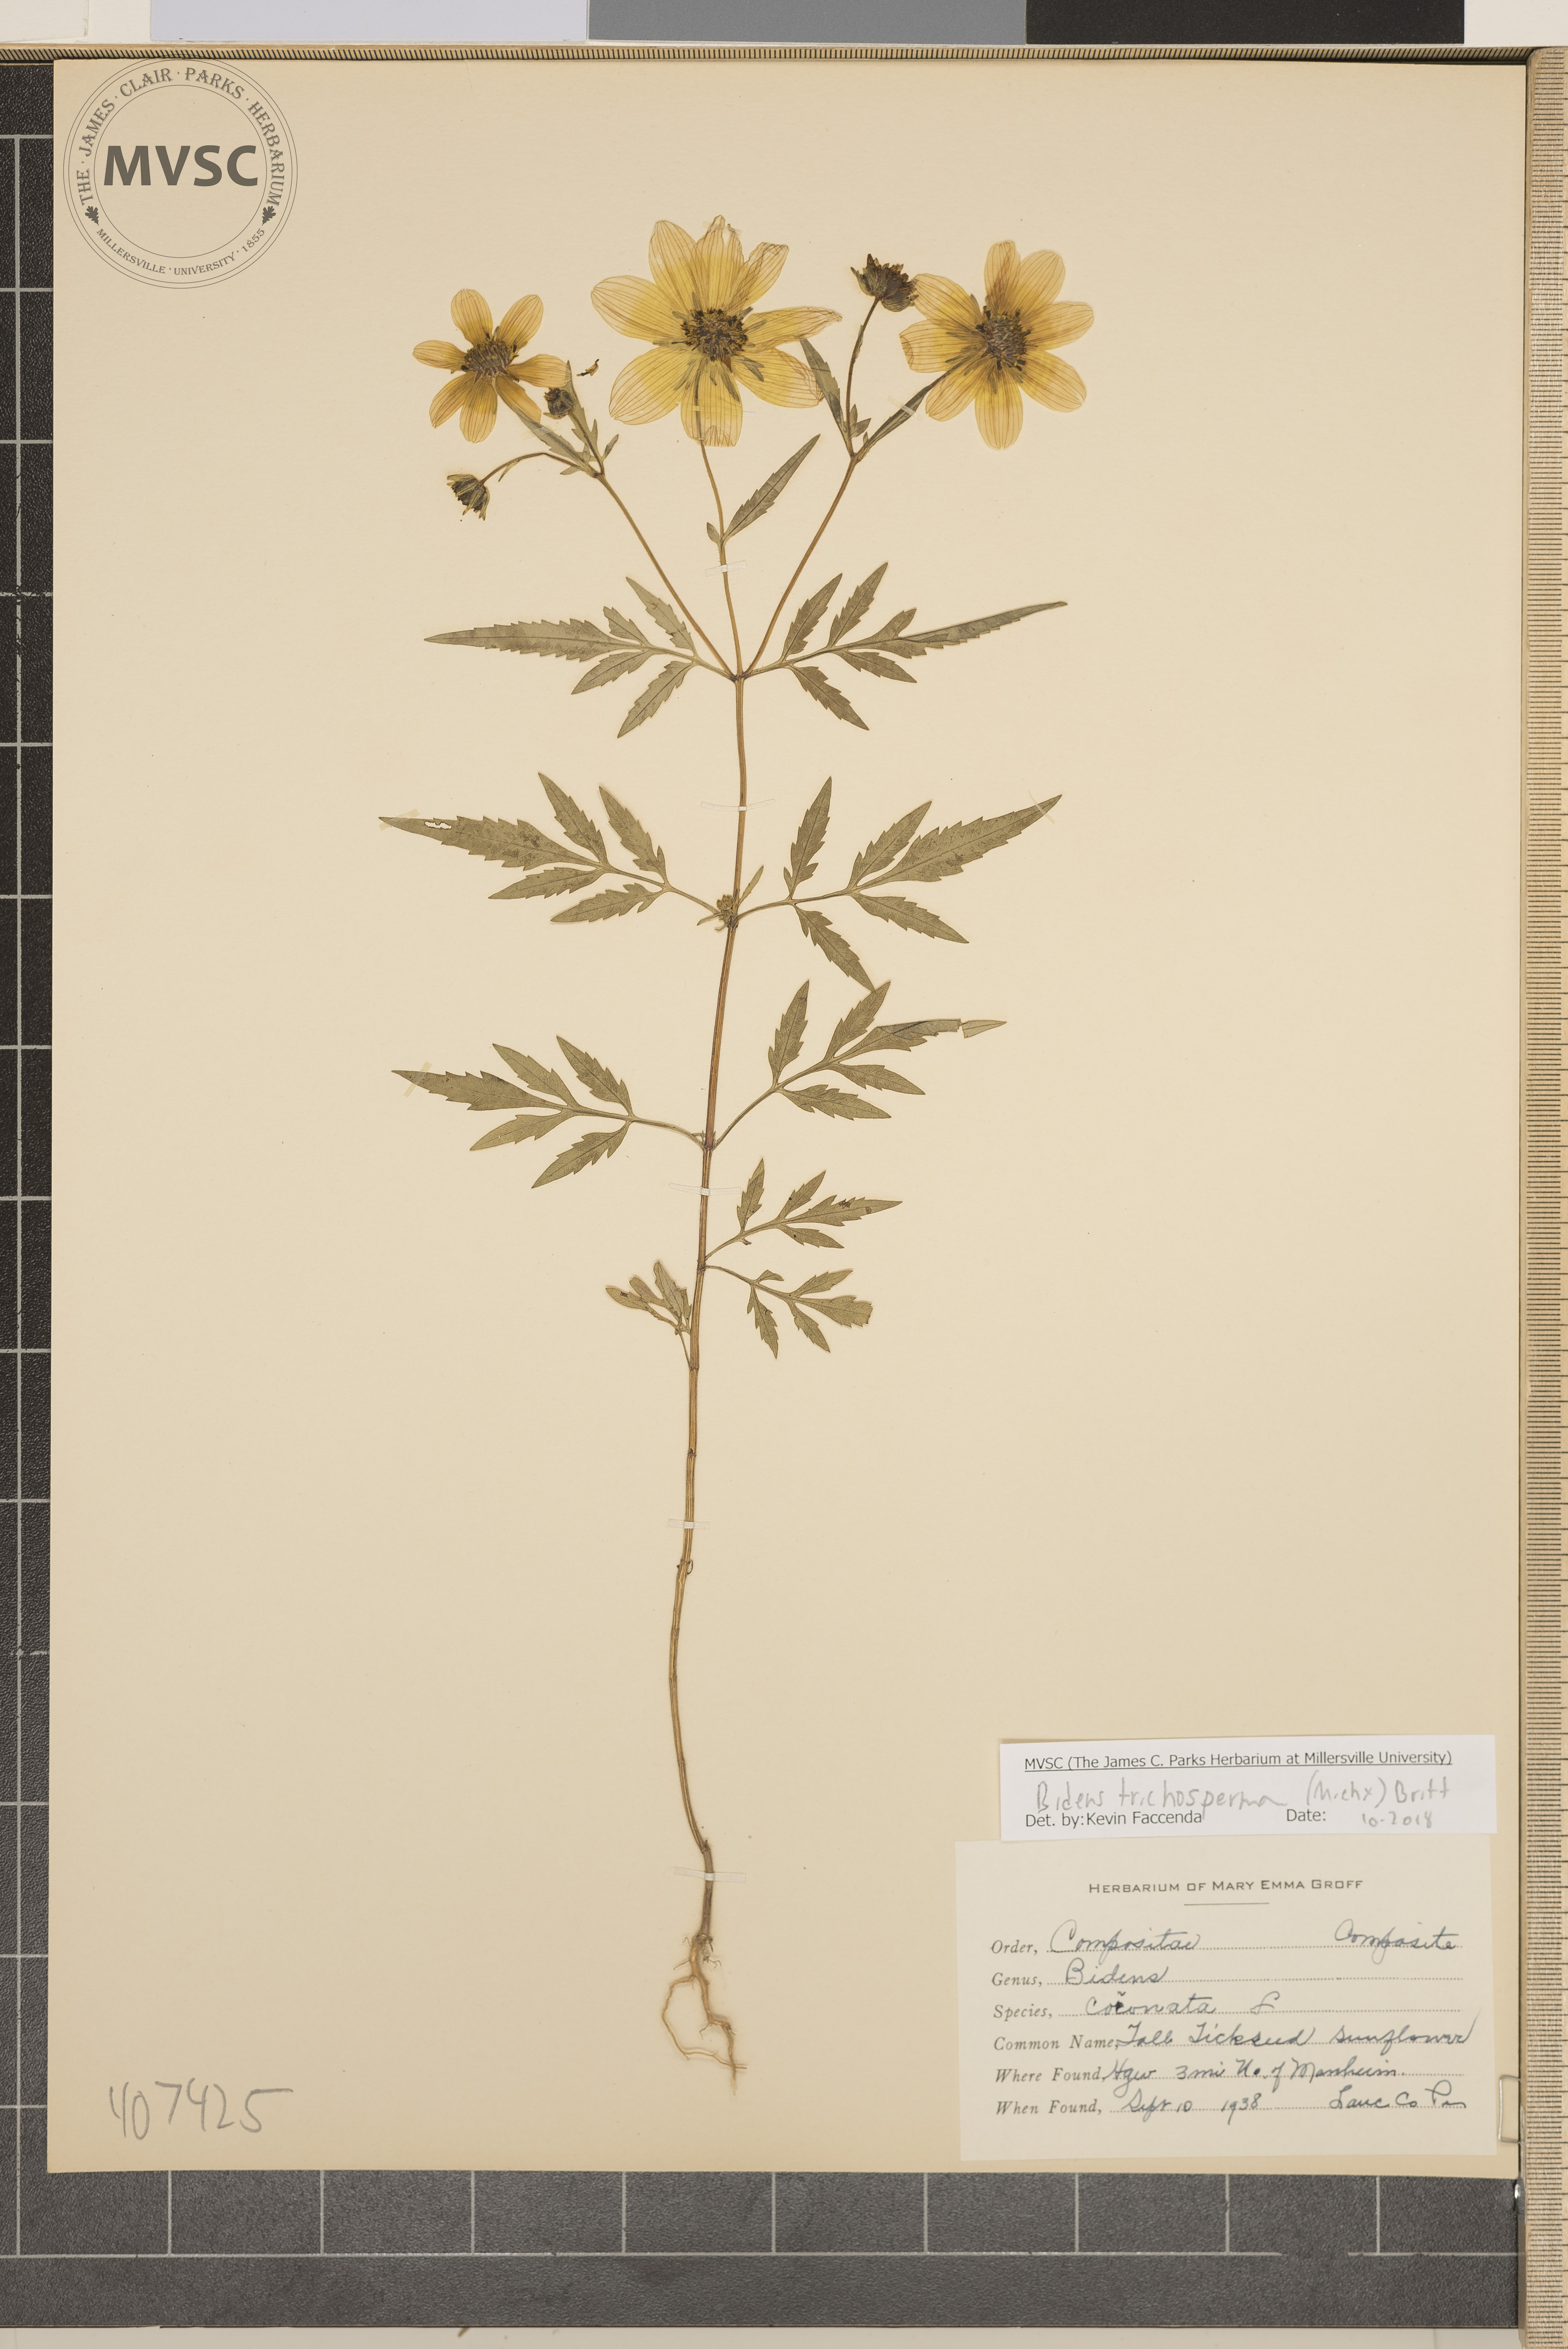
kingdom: Plantae
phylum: Tracheophyta
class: Magnoliopsida
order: Asterales
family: Asteraceae
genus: Bidens
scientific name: Bidens trichosperma
